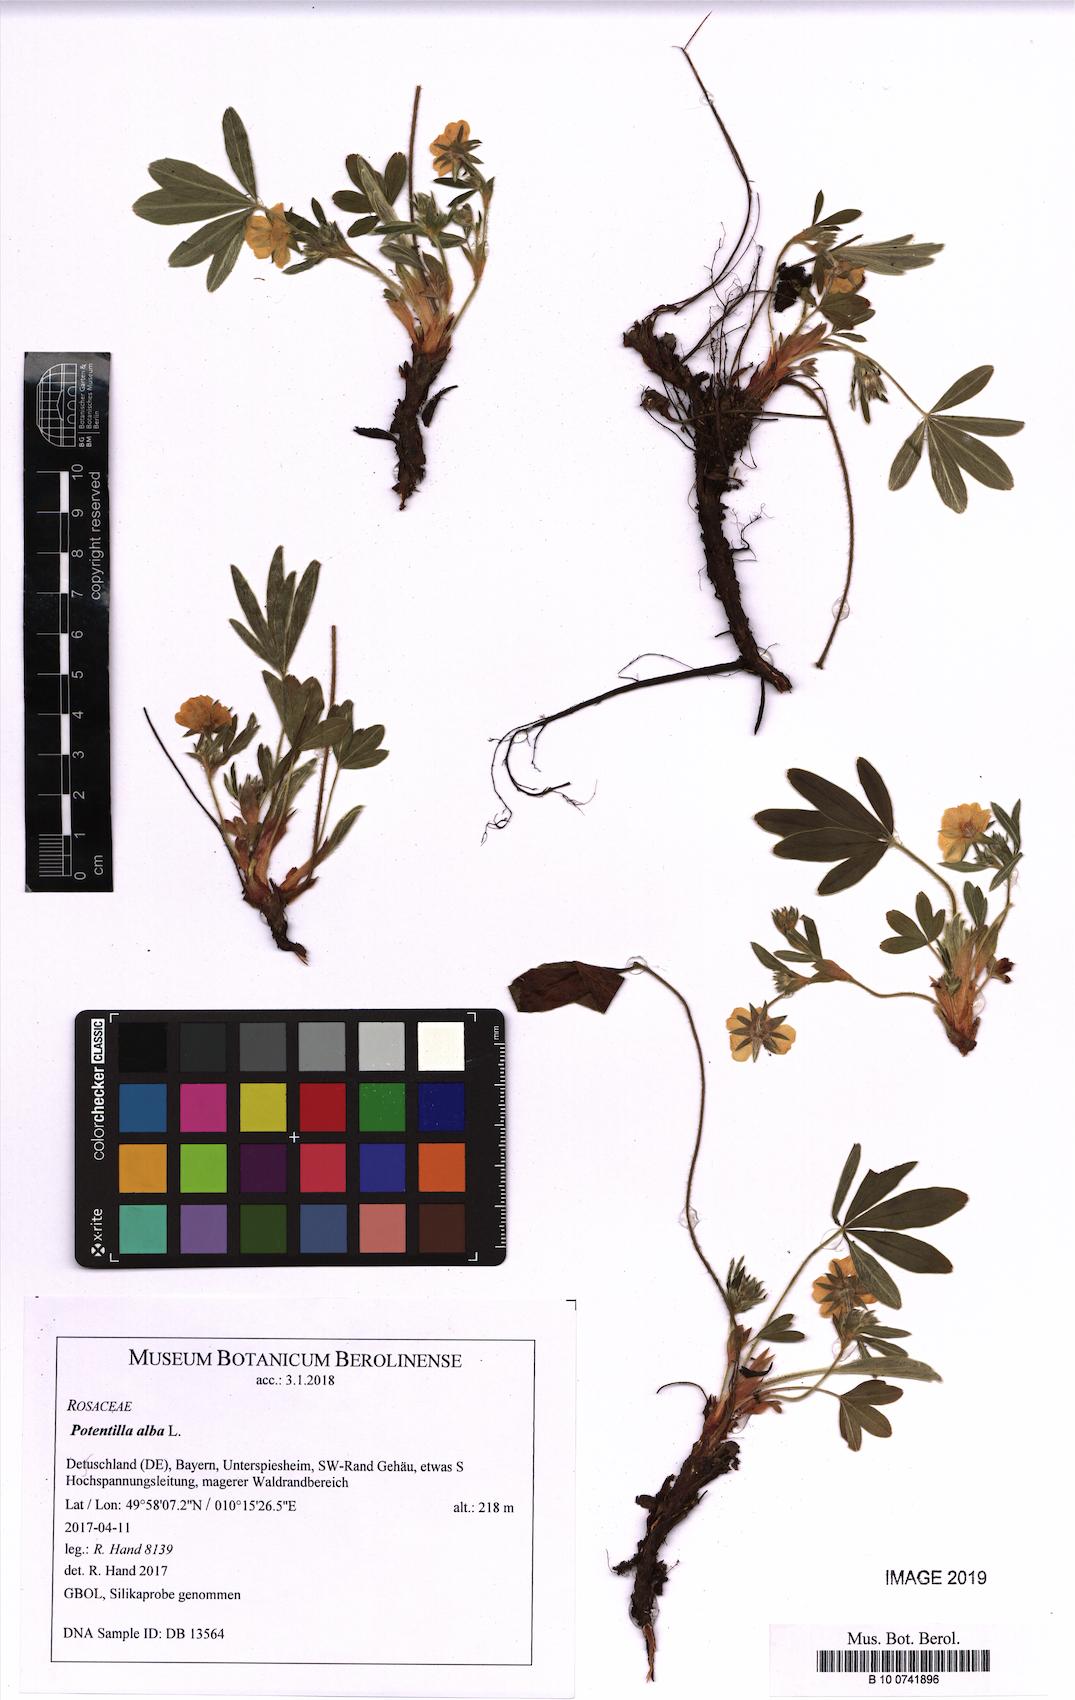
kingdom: Plantae
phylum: Tracheophyta
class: Magnoliopsida
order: Rosales
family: Rosaceae
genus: Potentilla
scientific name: Potentilla alba
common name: White cinquefoil
